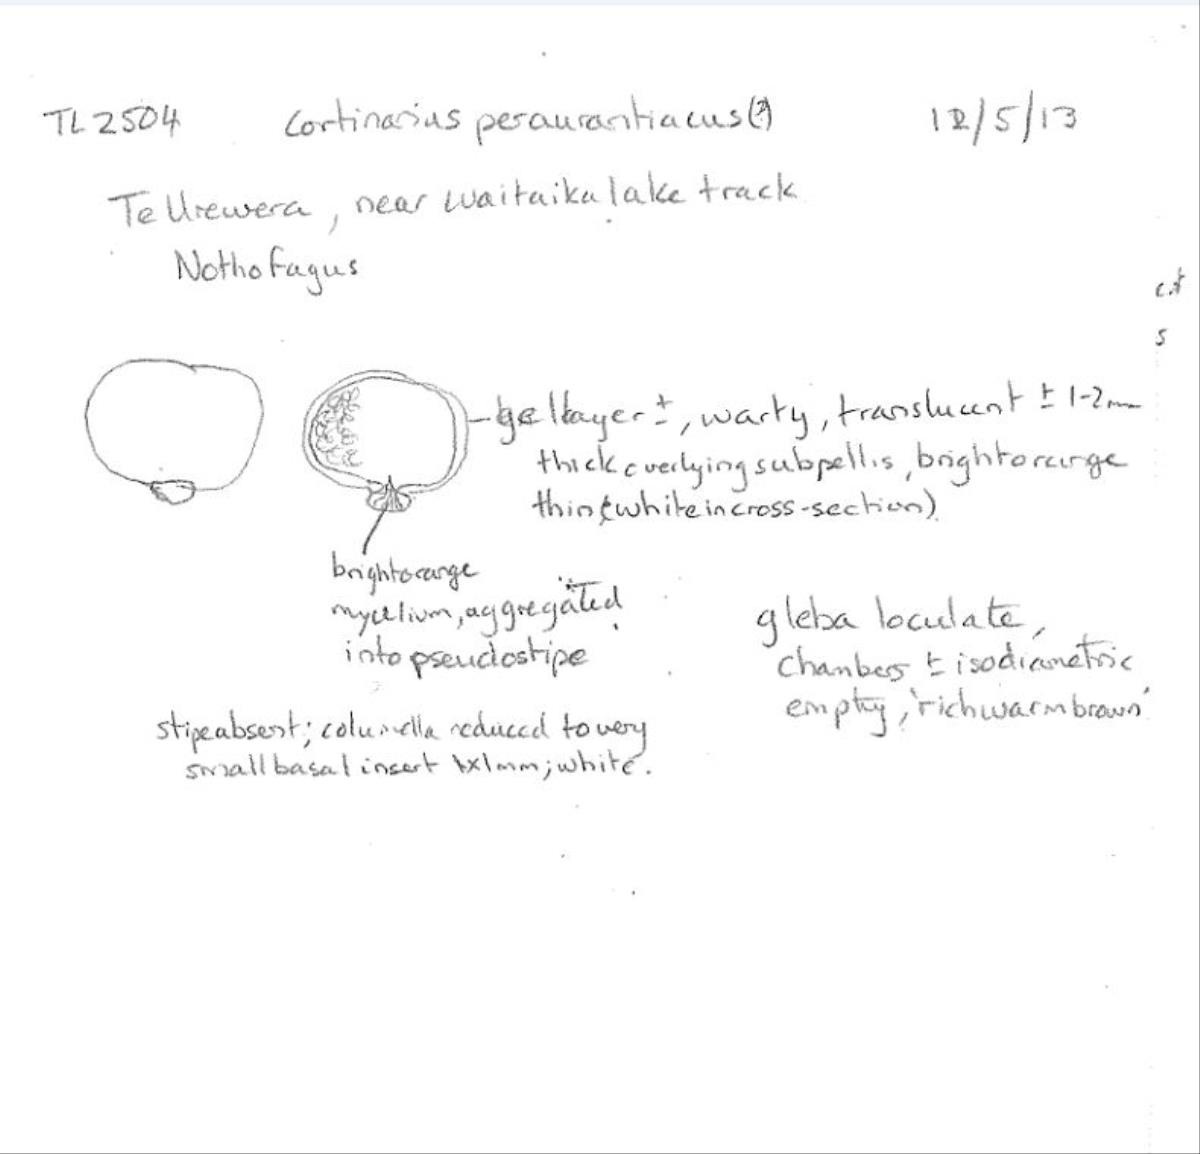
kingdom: Fungi
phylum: Basidiomycota
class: Agaricomycetes
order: Agaricales
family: Cortinariaceae
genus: Cortinarius
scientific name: Cortinarius peraurantiacus
